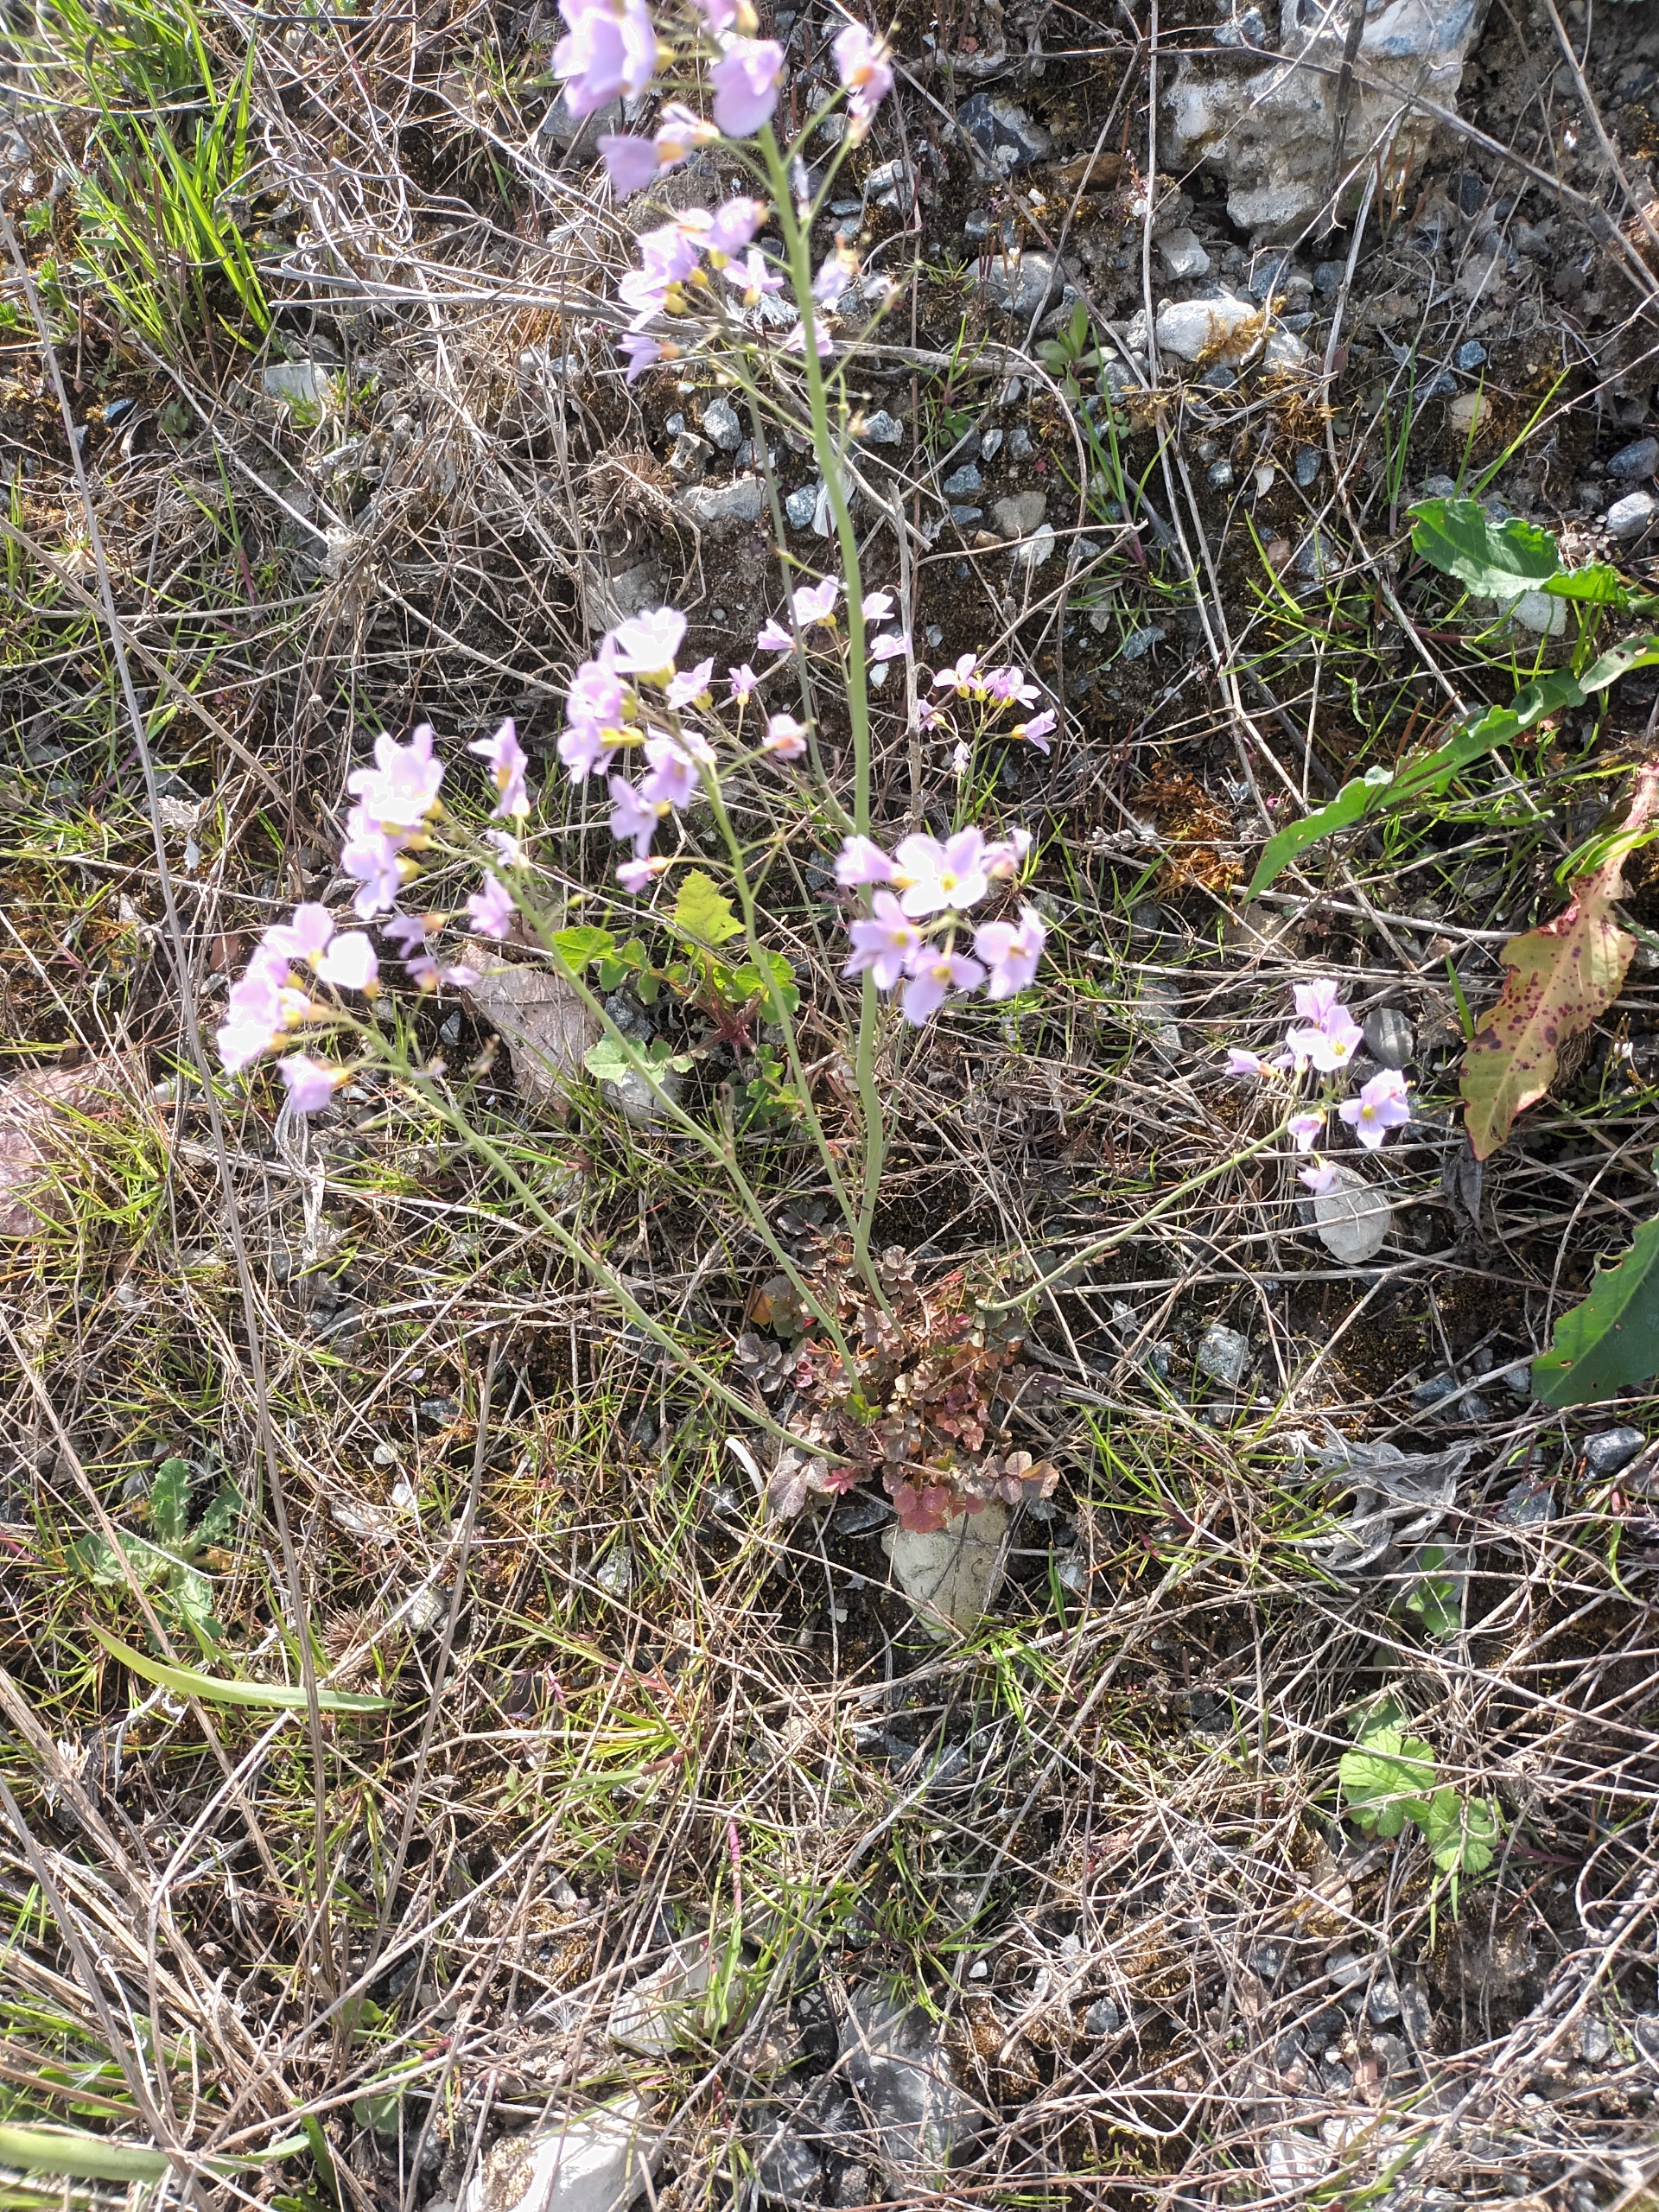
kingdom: Plantae
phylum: Tracheophyta
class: Magnoliopsida
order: Brassicales
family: Brassicaceae
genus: Cardamine
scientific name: Cardamine pratensis
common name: Engkarse
